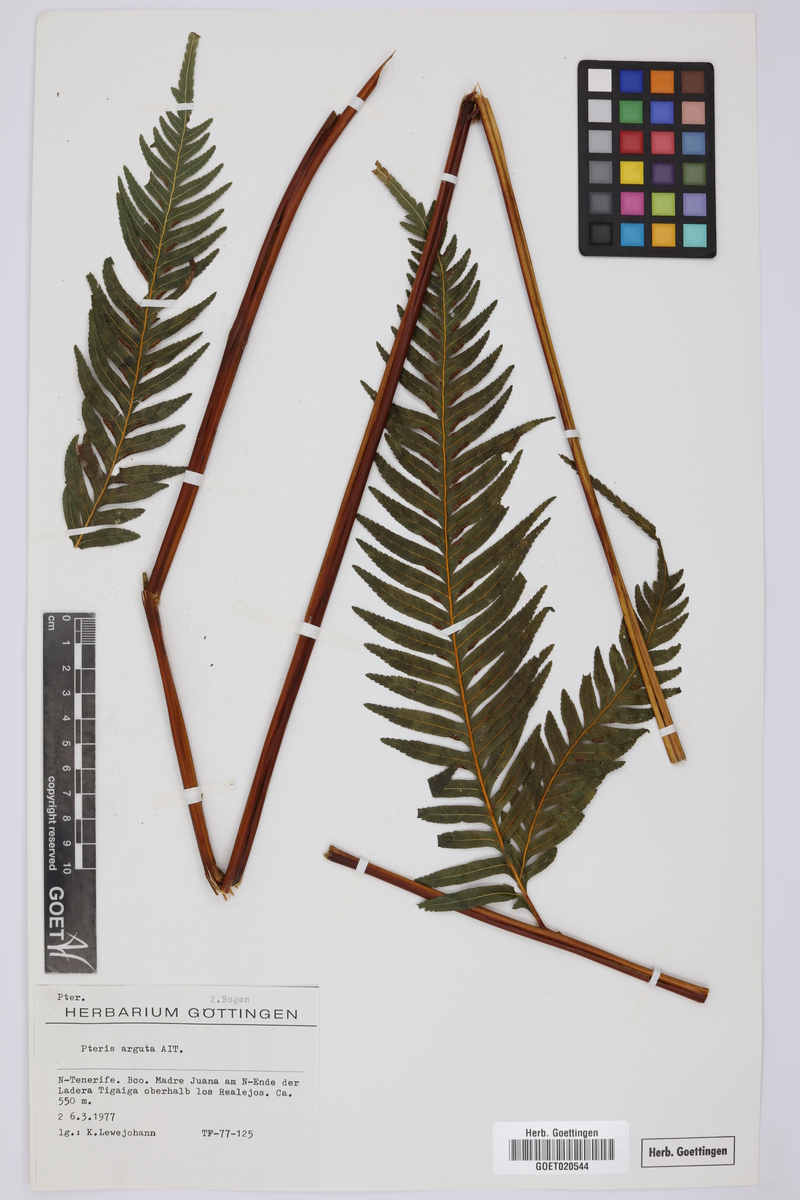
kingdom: Plantae
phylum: Tracheophyta
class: Polypodiopsida
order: Polypodiales
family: Pteridaceae
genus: Pteris
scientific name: Pteris dentata
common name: Toothed brake
